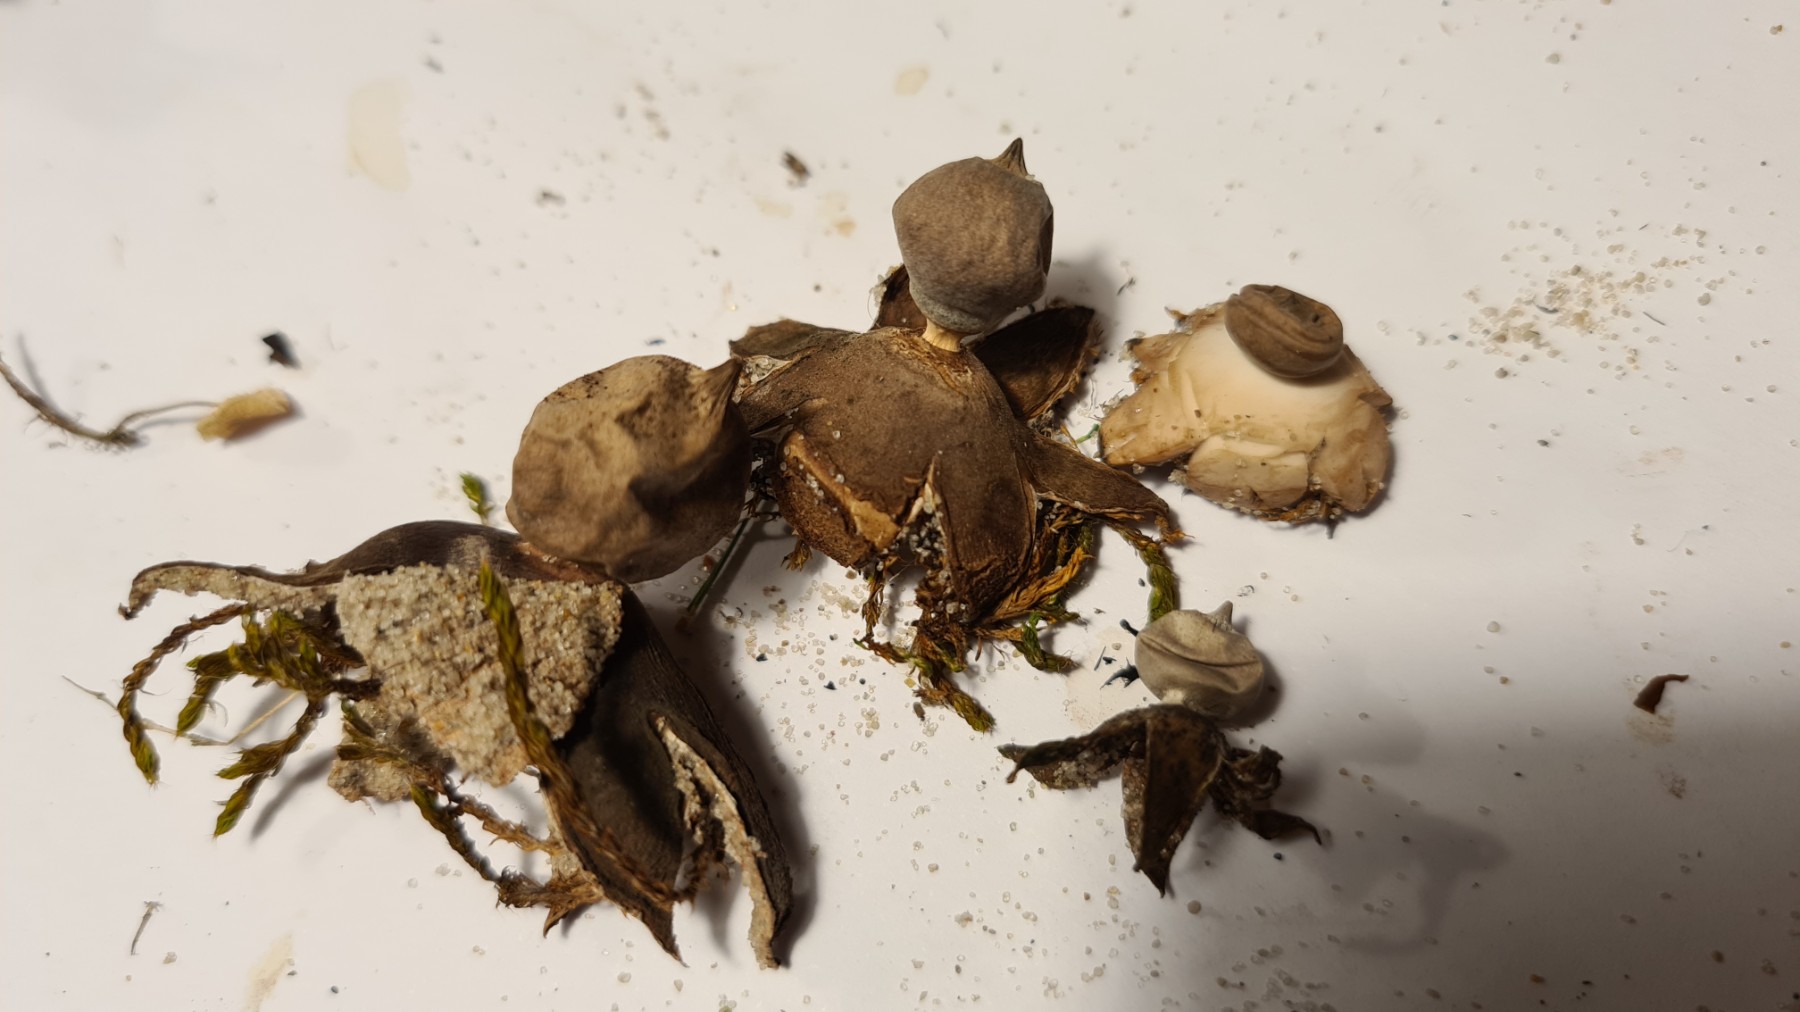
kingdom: Fungi
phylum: Basidiomycota
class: Agaricomycetes
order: Geastrales
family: Geastraceae
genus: Geastrum
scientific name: Geastrum striatum
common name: dværg-stjernebold
